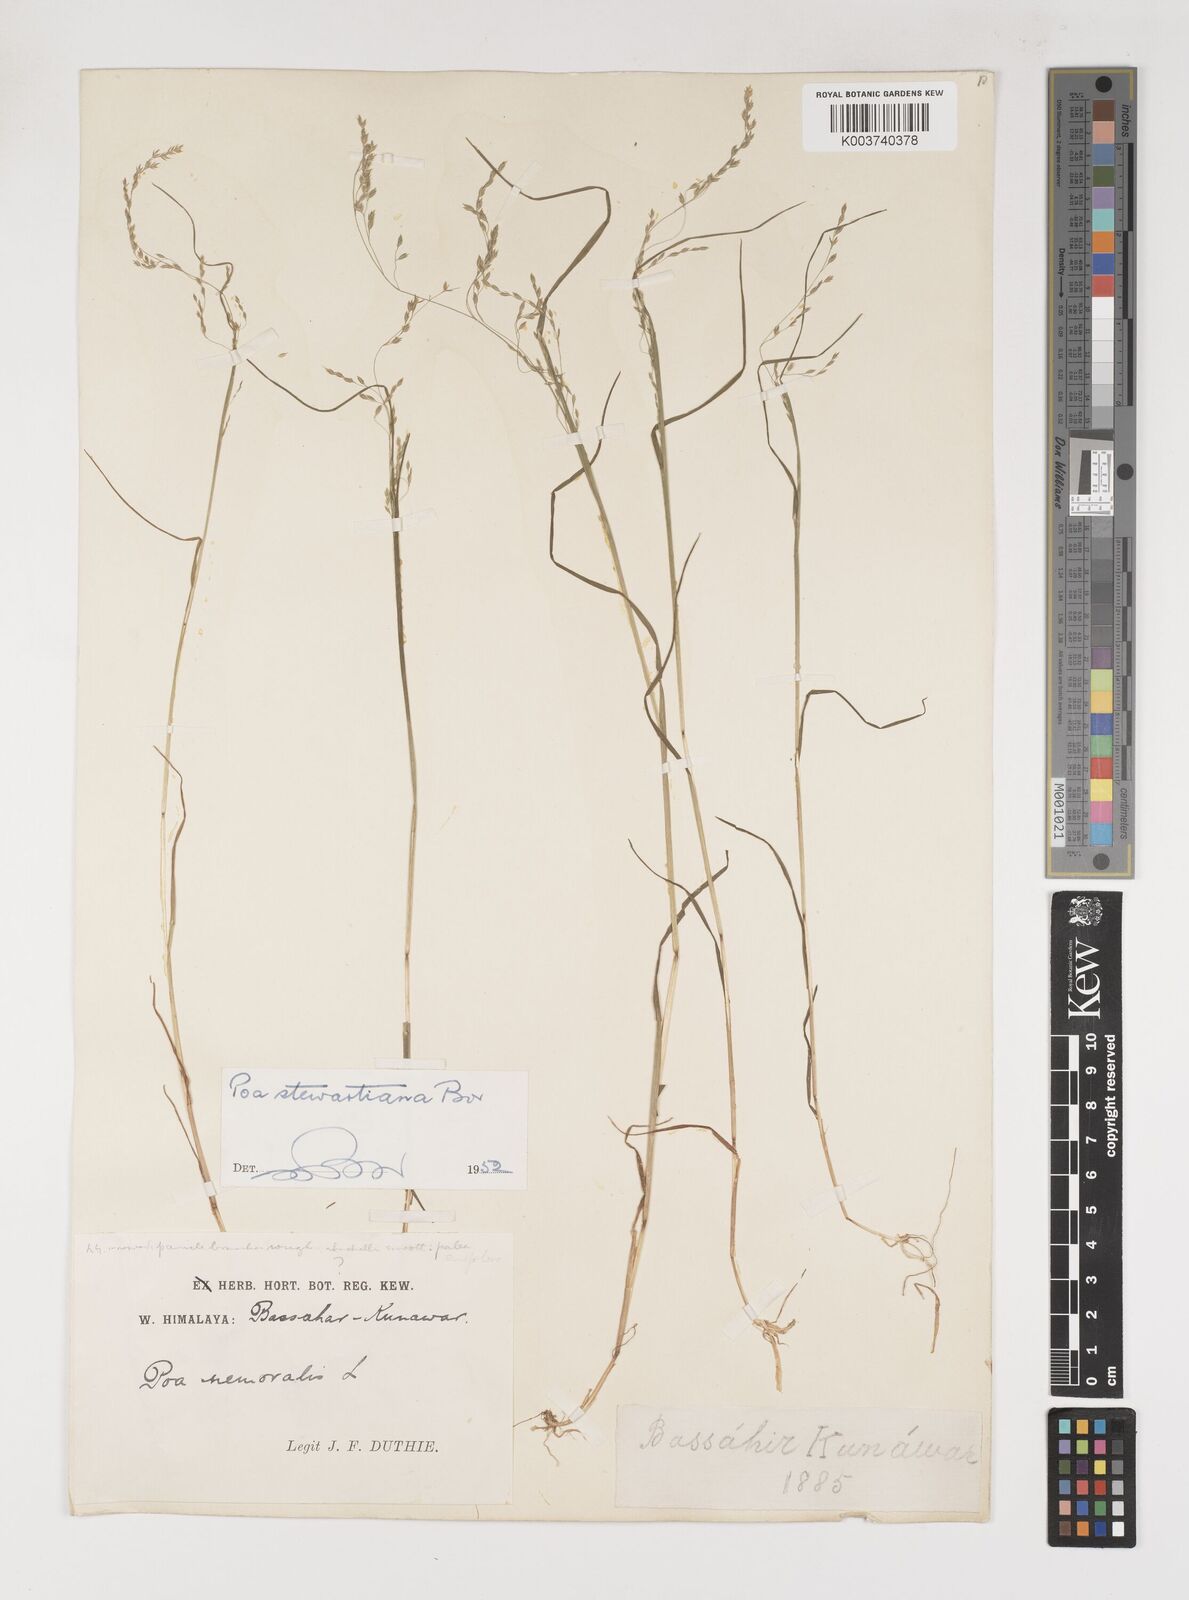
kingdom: Plantae
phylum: Tracheophyta
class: Liliopsida
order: Poales
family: Poaceae
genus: Poa
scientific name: Poa stewartiana
